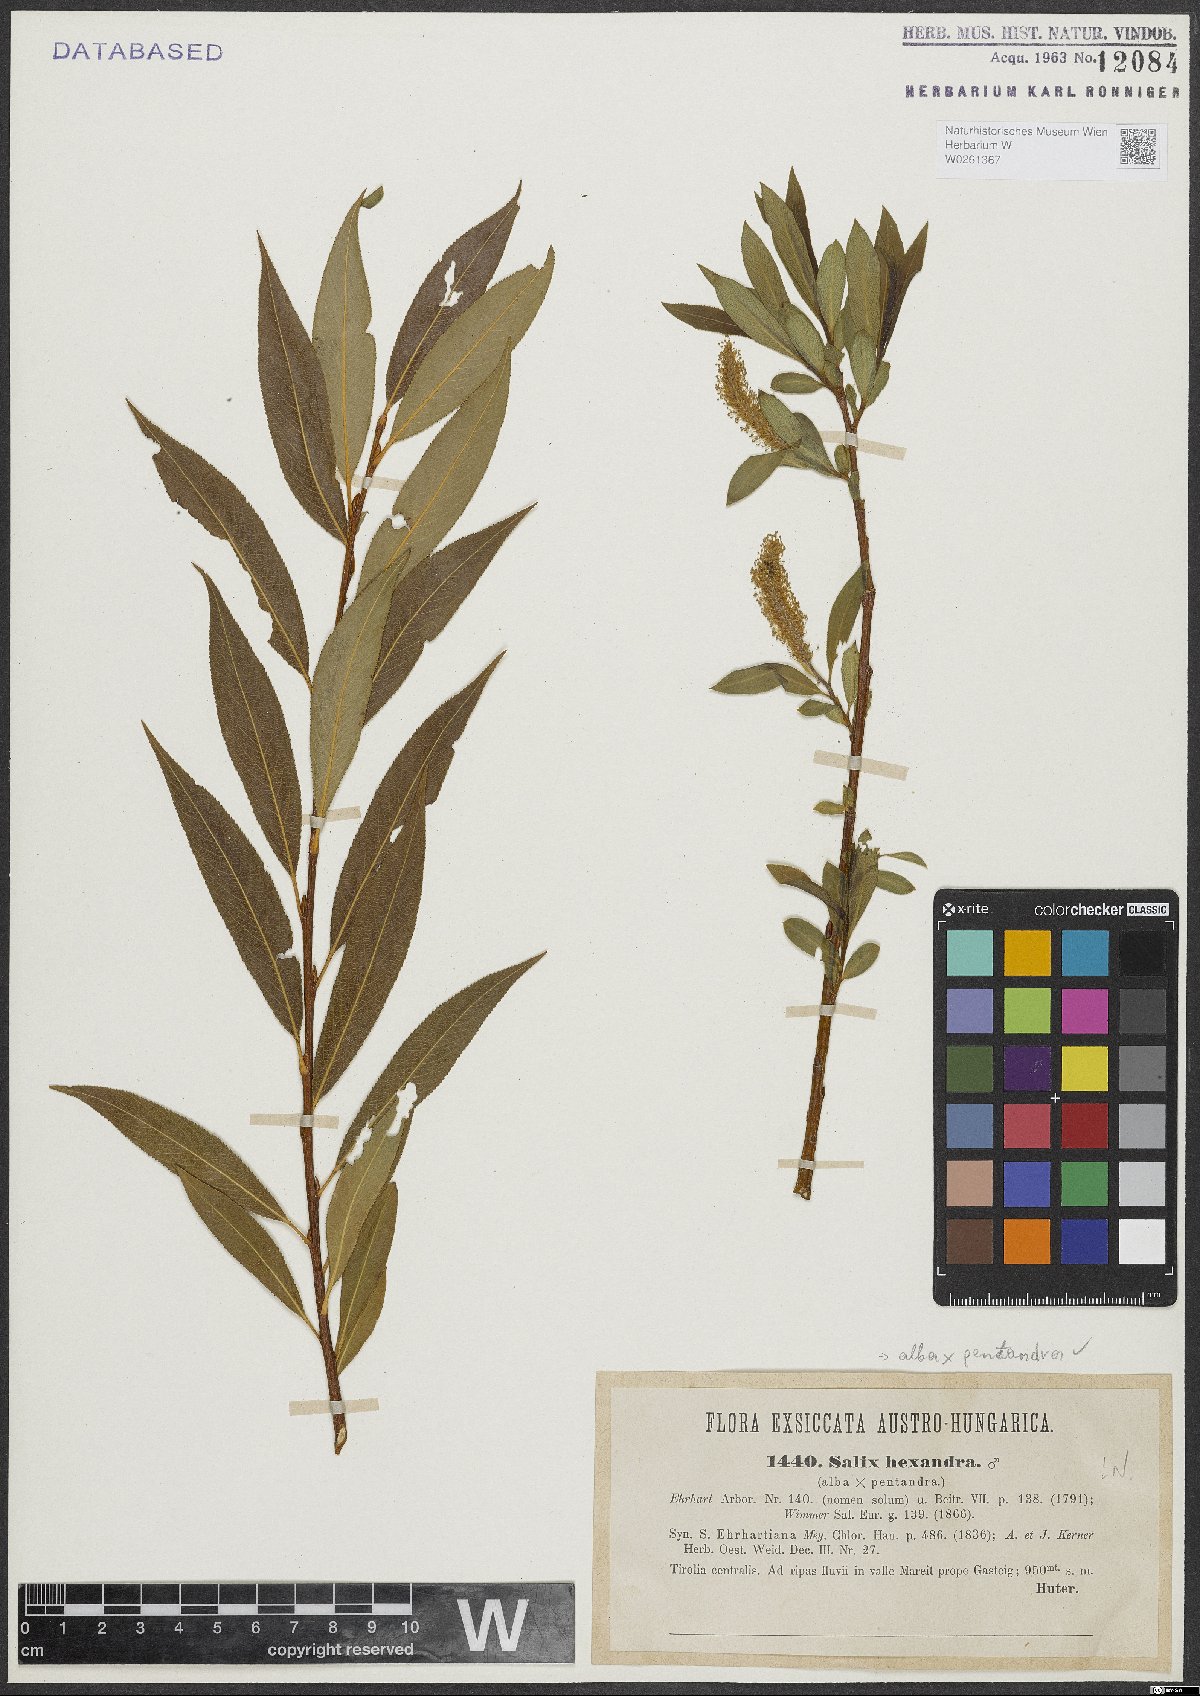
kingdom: Plantae
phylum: Tracheophyta
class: Magnoliopsida
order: Malpighiales
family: Salicaceae
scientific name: Salicaceae
